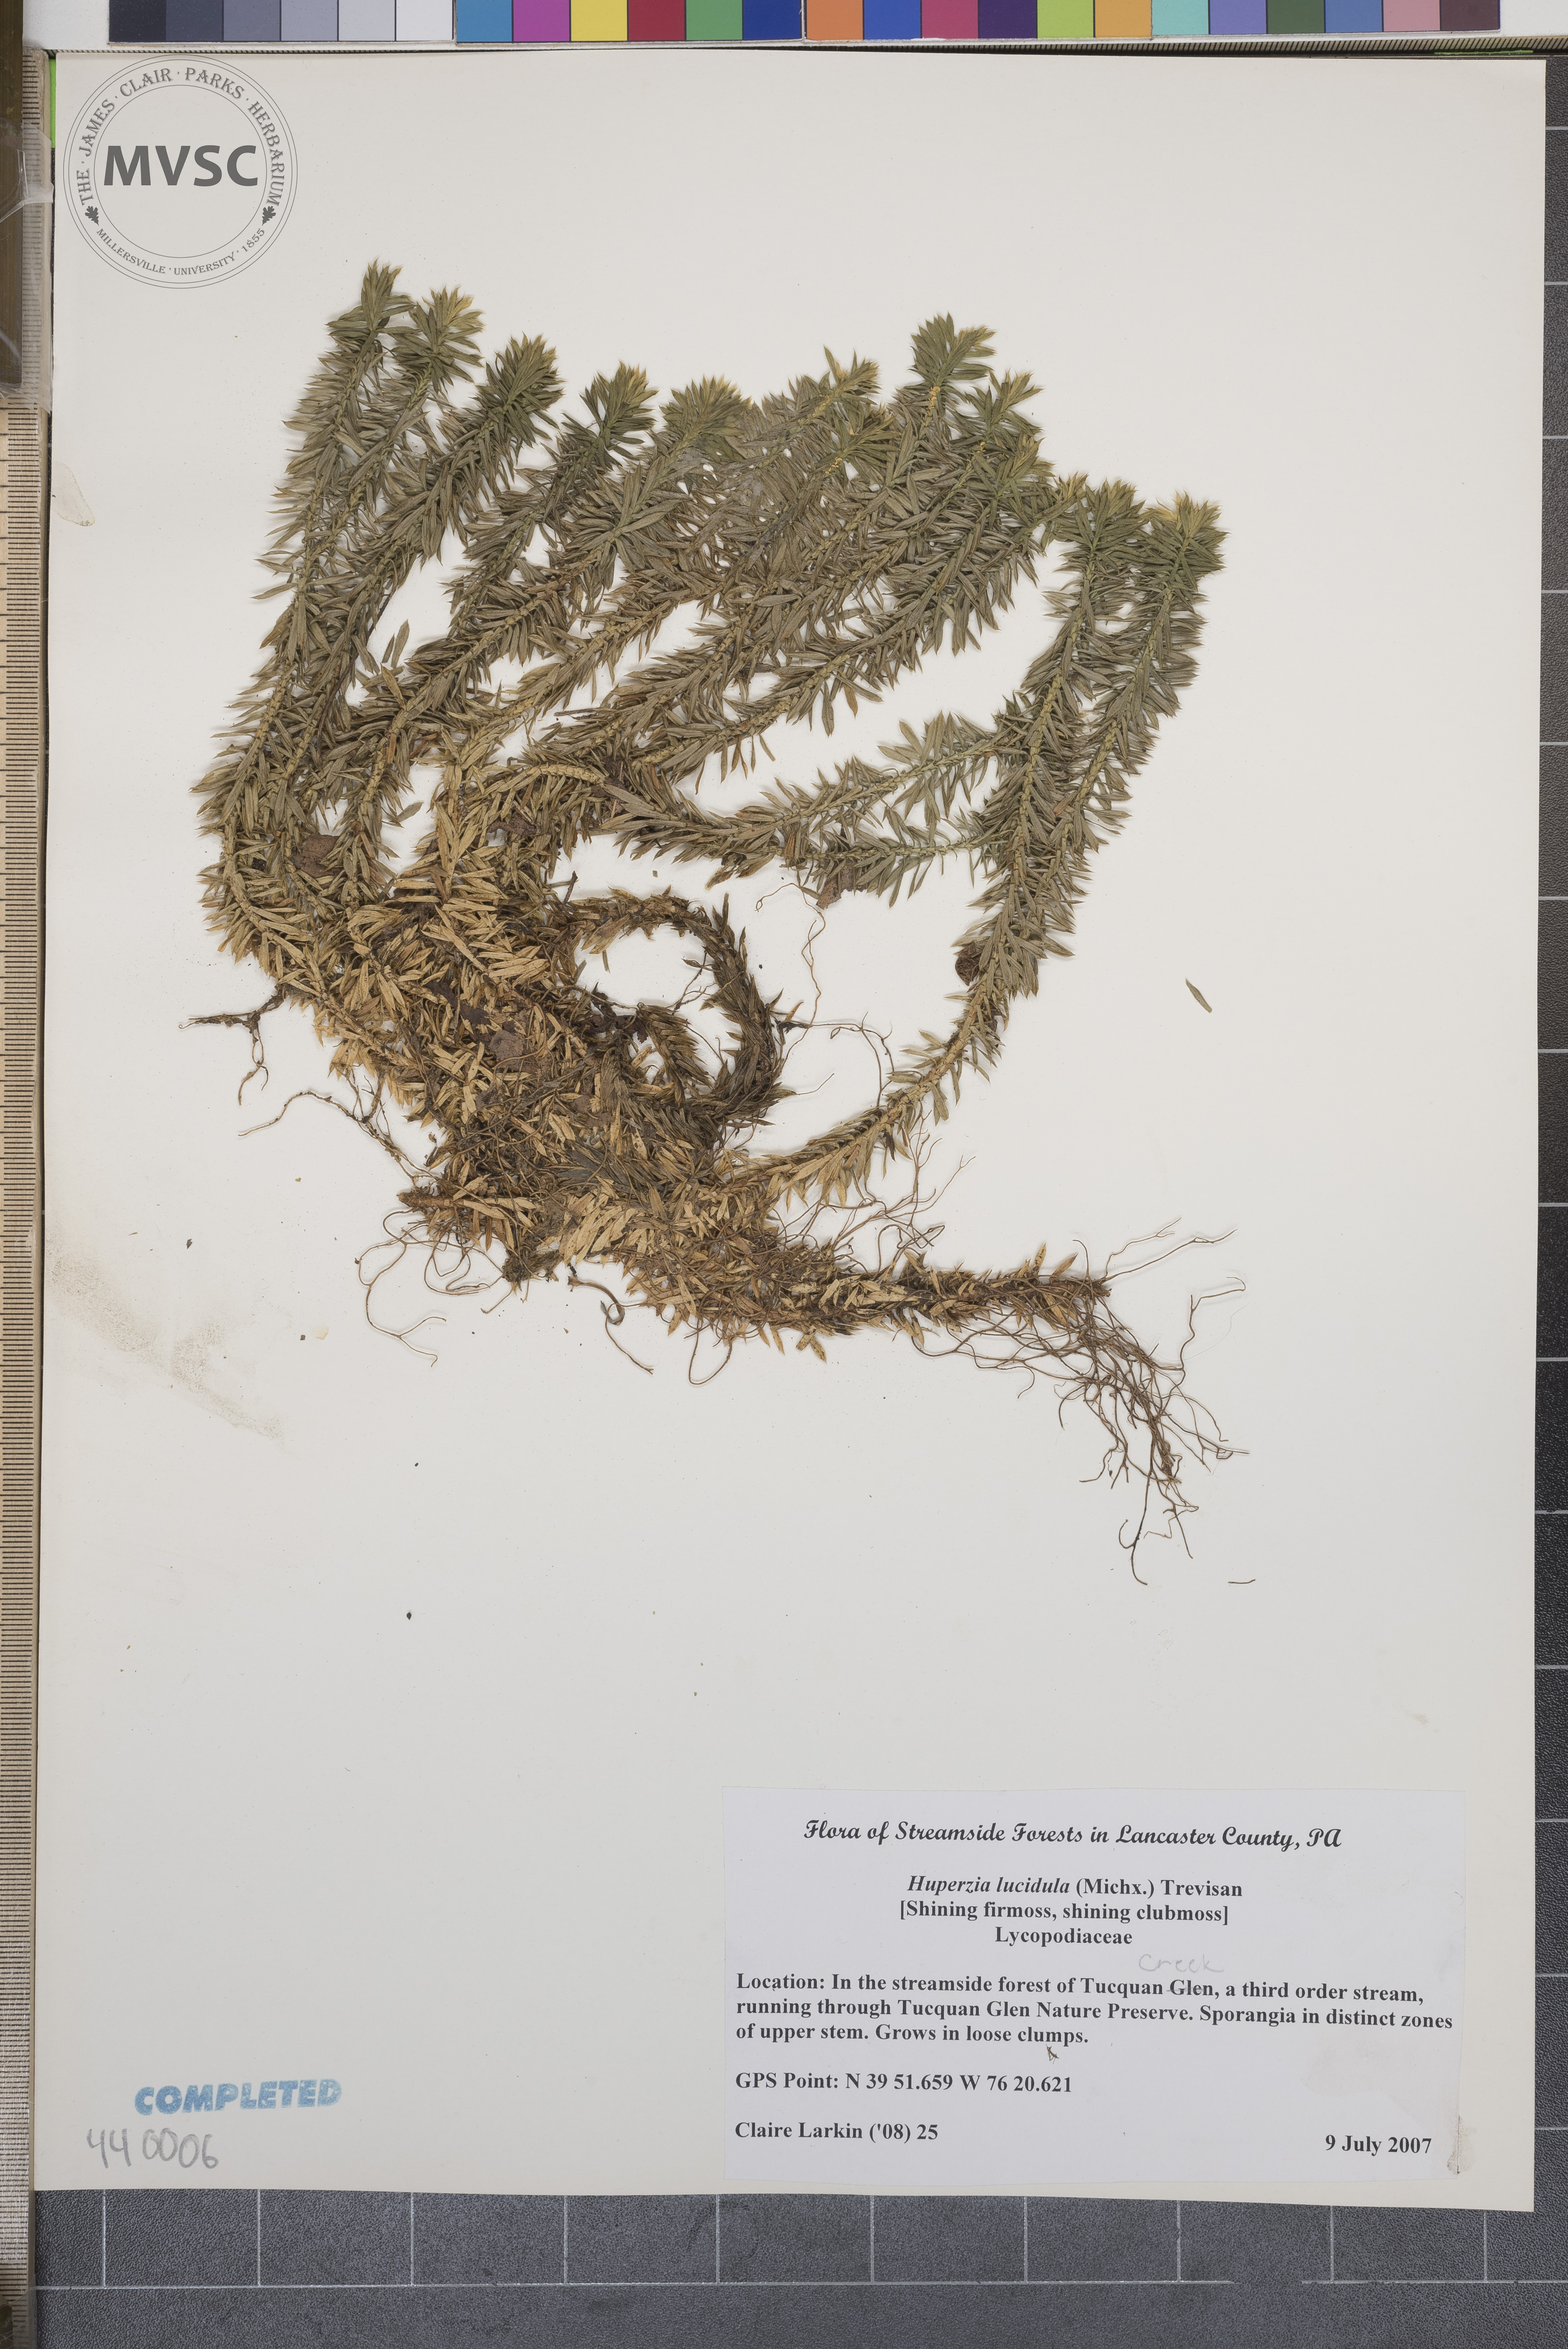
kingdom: Plantae
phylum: Tracheophyta
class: Lycopodiopsida
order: Lycopodiales
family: Lycopodiaceae
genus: Huperzia
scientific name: Huperzia lucidula
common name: Shining firmoss
